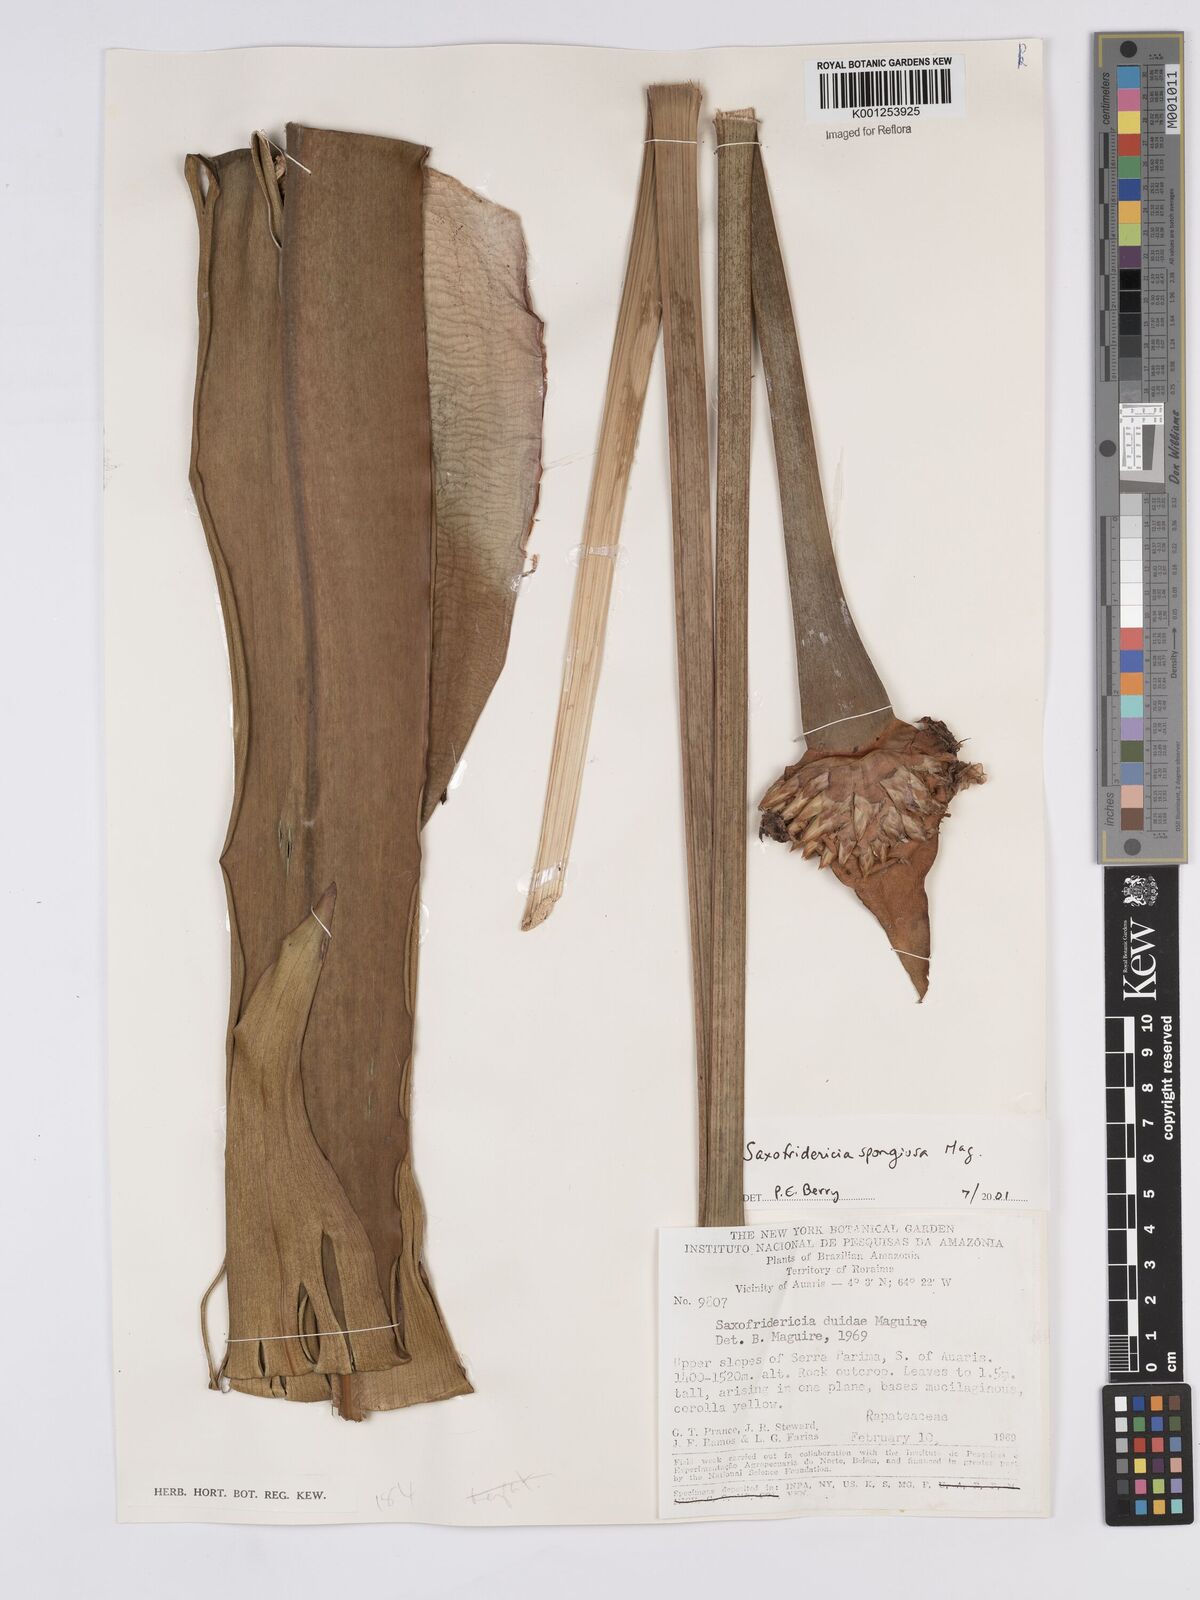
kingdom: Plantae
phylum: Tracheophyta
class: Liliopsida
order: Poales
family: Rapateaceae
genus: Saxofridericia
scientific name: Saxofridericia spongiosa
